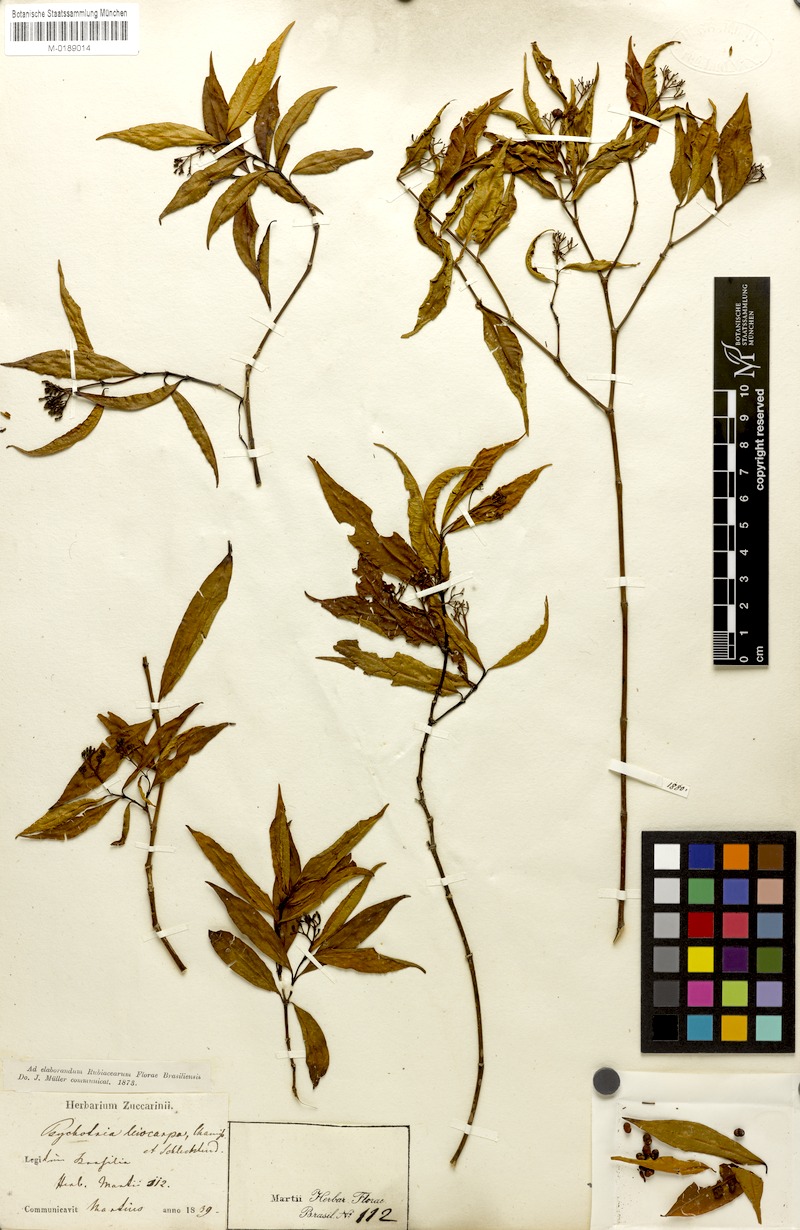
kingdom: Plantae
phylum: Tracheophyta
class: Magnoliopsida
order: Gentianales
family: Rubiaceae
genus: Psychotria
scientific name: Psychotria leiocarpa
